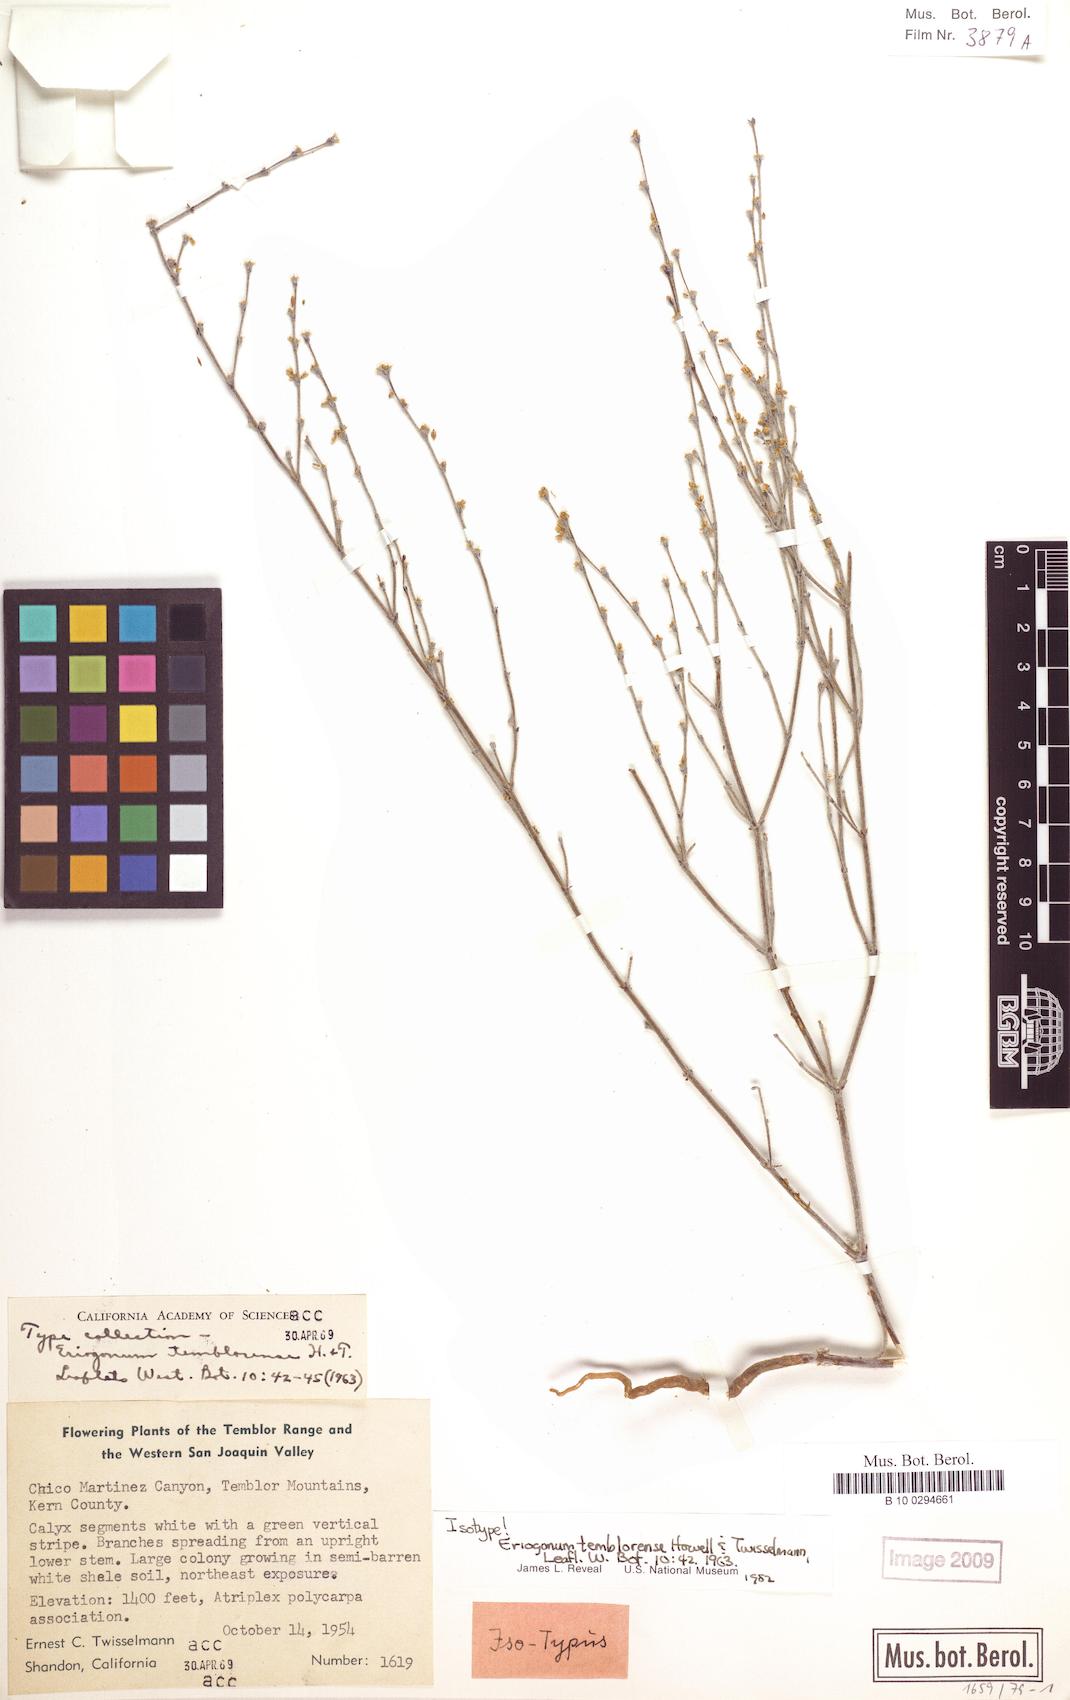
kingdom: Plantae
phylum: Tracheophyta
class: Magnoliopsida
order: Caryophyllales
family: Polygonaceae
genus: Eriogonum
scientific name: Eriogonum temblorense
